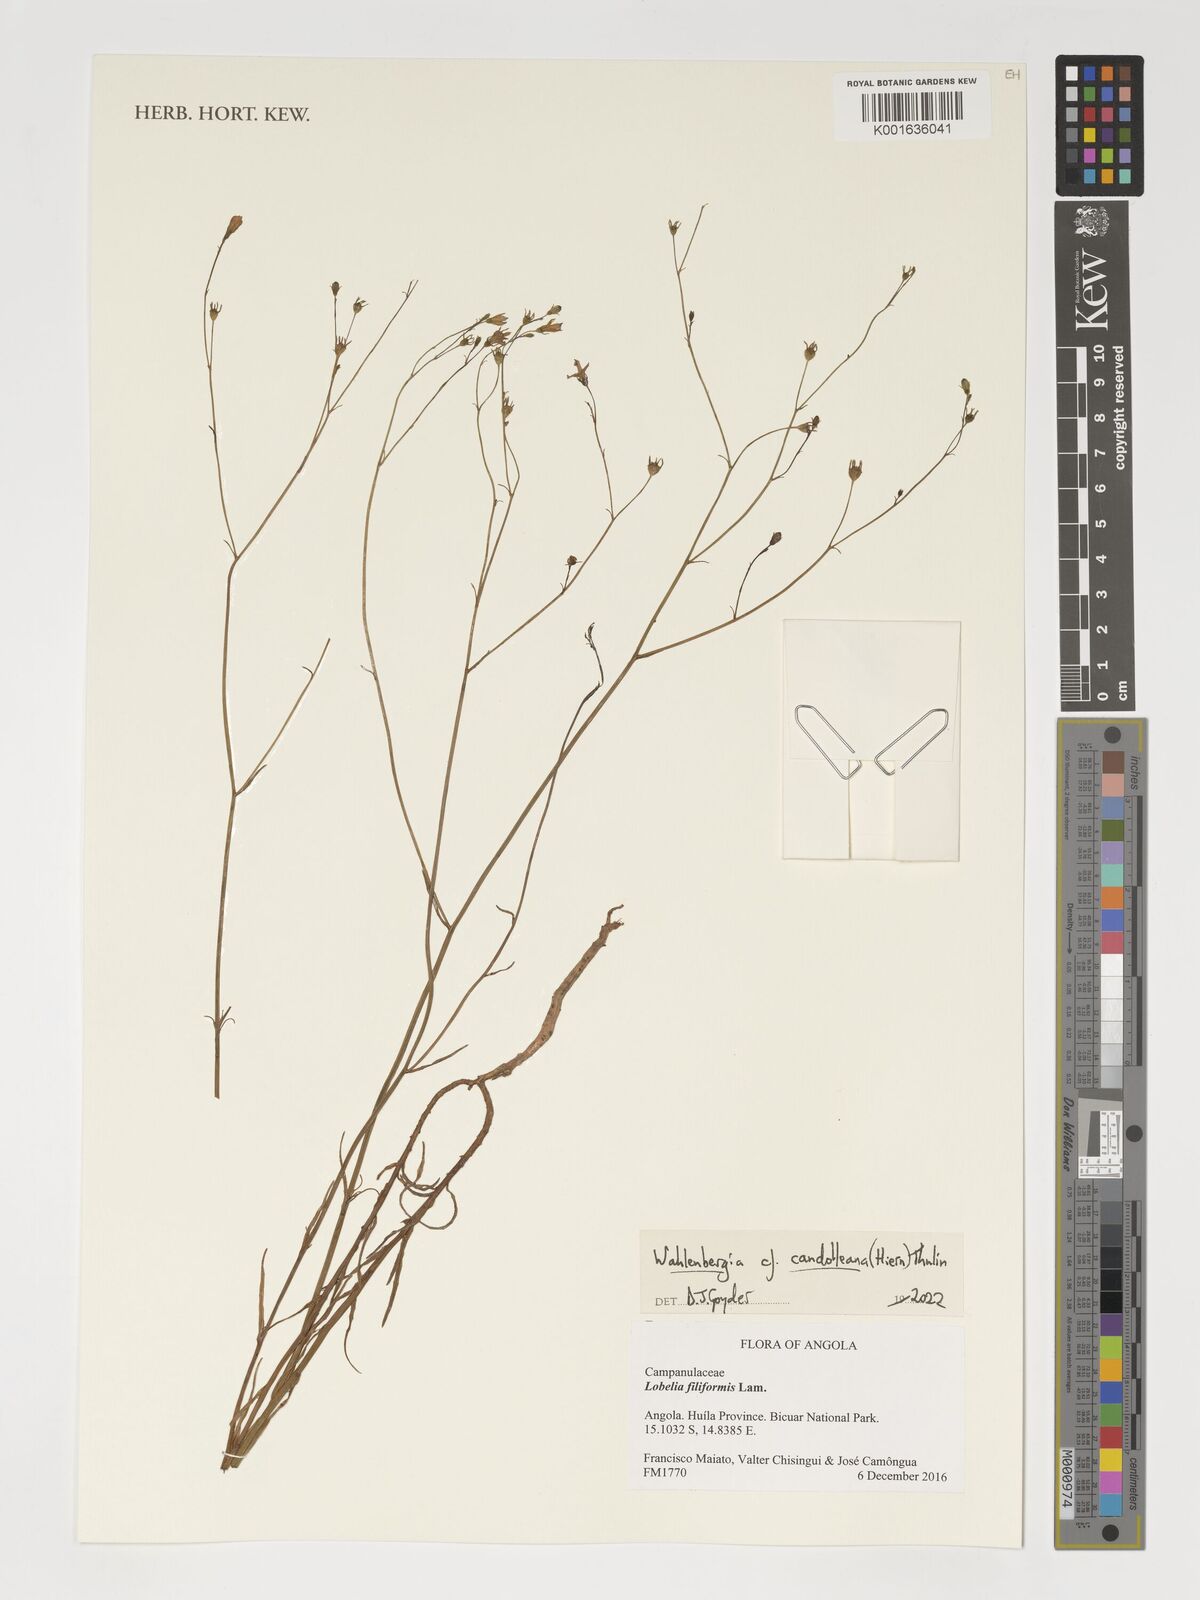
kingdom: Plantae
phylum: Tracheophyta
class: Magnoliopsida
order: Asterales
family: Campanulaceae
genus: Wahlenbergia
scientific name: Wahlenbergia candolleana
